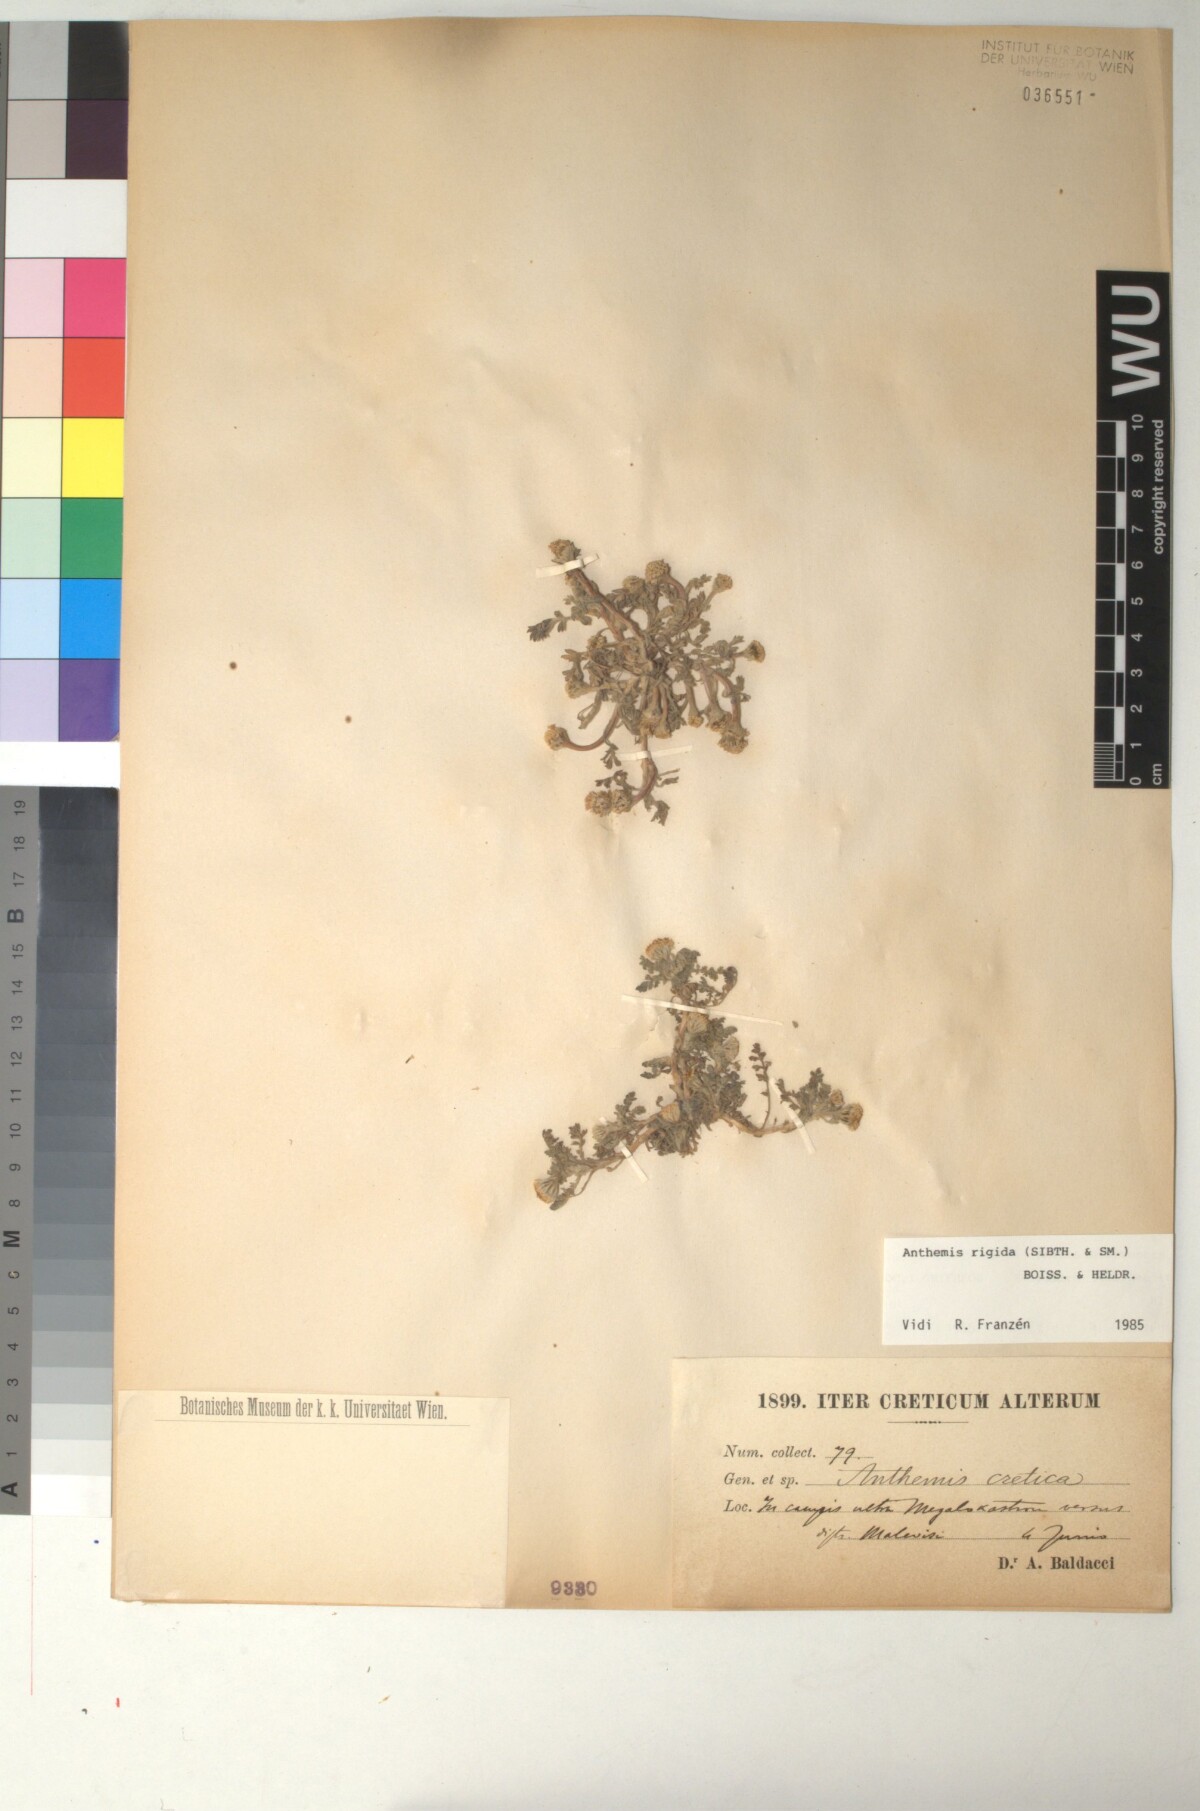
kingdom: Plantae
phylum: Tracheophyta
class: Magnoliopsida
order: Asterales
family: Asteraceae
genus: Anthemis
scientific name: Anthemis rigida
